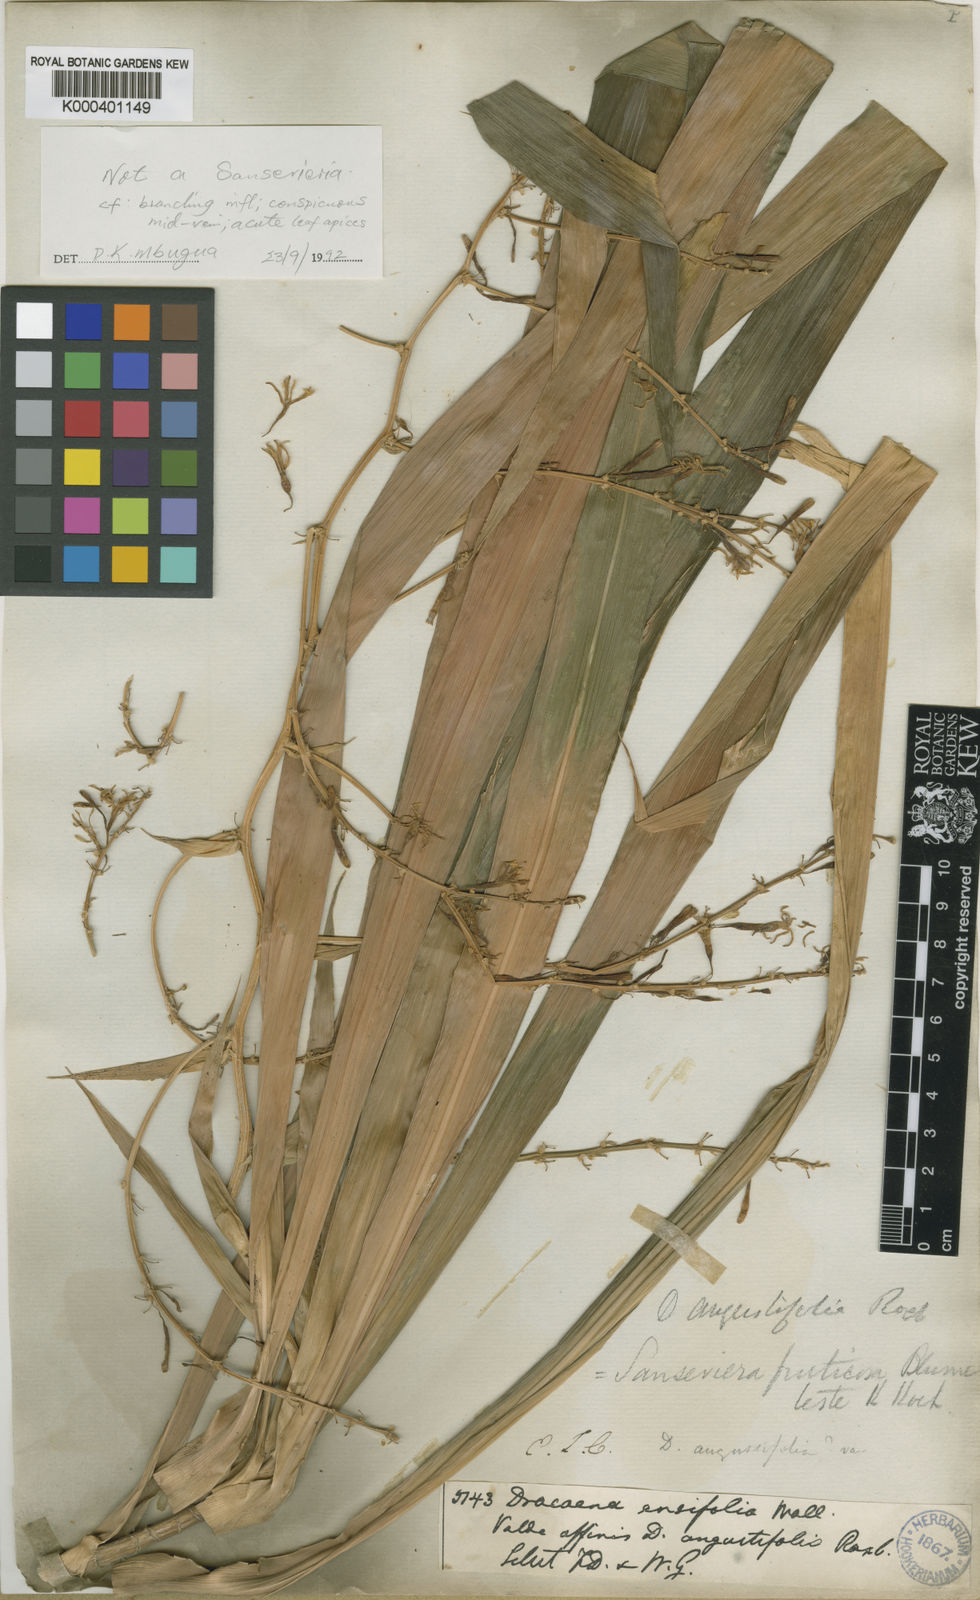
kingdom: Plantae
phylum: Tracheophyta
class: Liliopsida
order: Asparagales
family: Asparagaceae
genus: Dracaena
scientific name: Dracaena angustifolia
